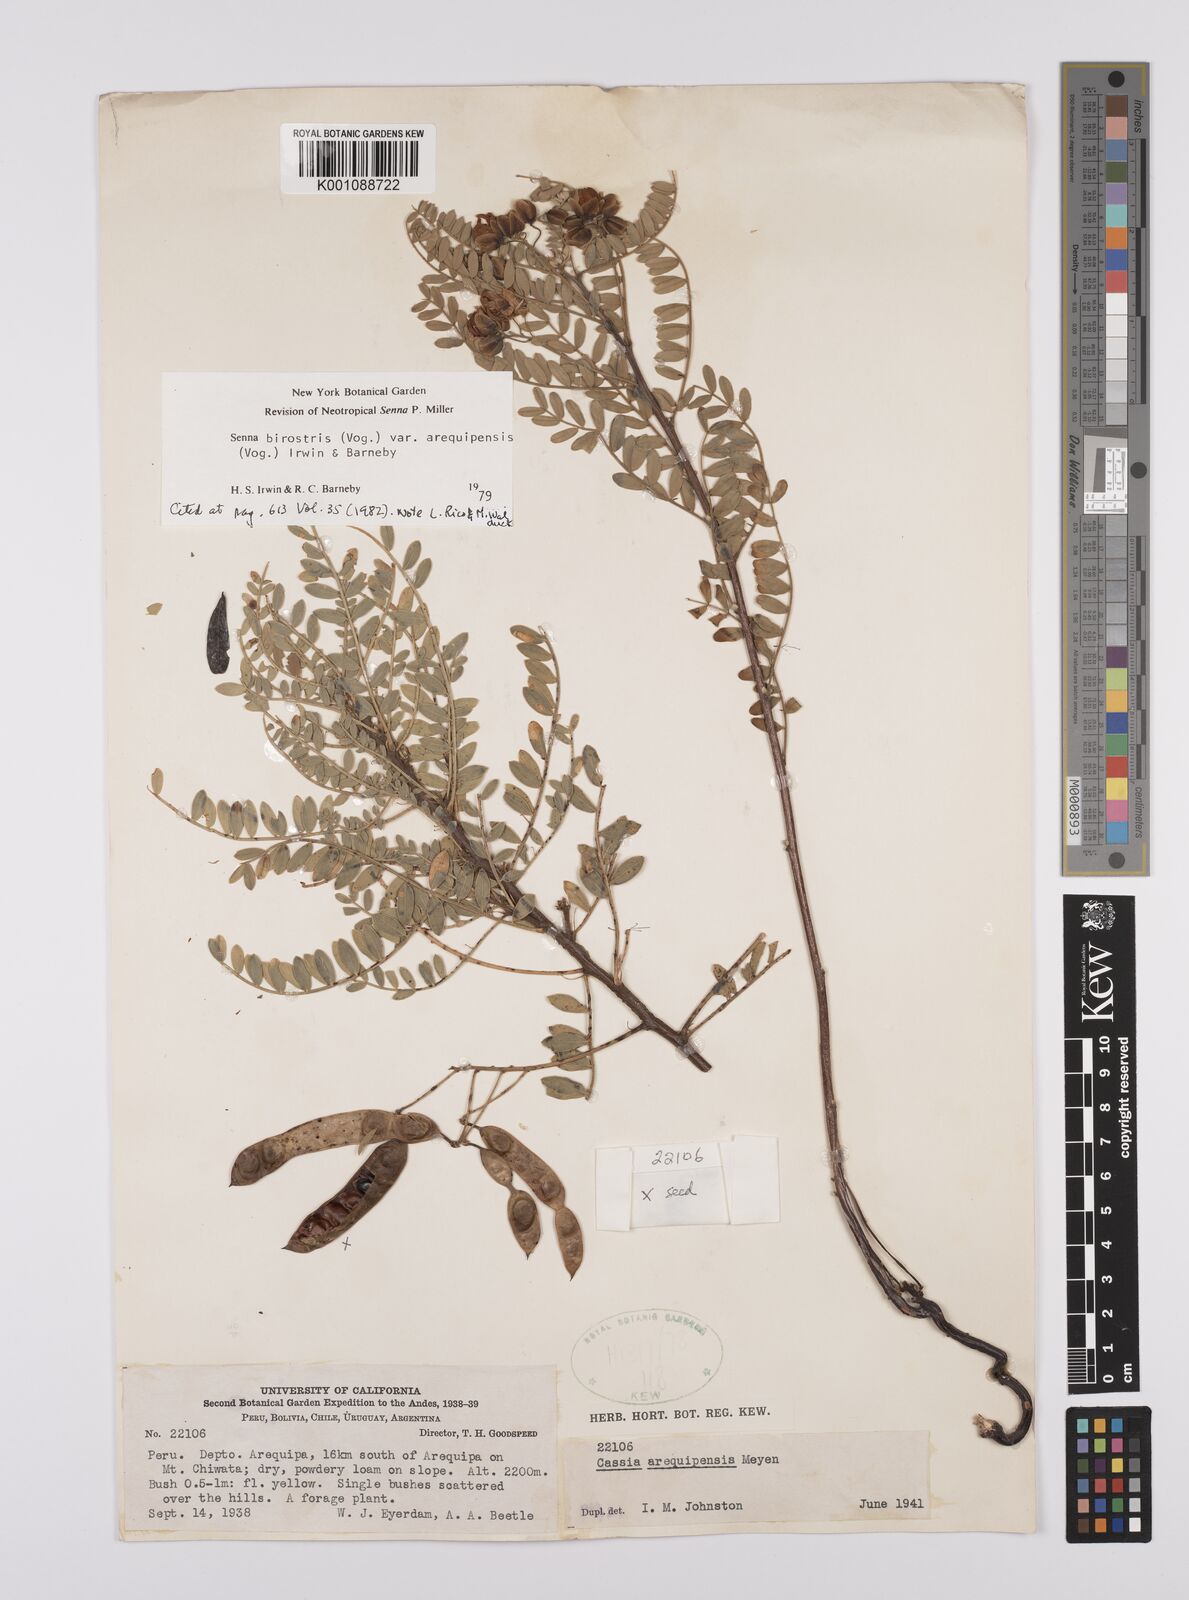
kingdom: Plantae
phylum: Tracheophyta
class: Magnoliopsida
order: Fabales
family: Fabaceae
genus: Senna
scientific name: Senna birostris
